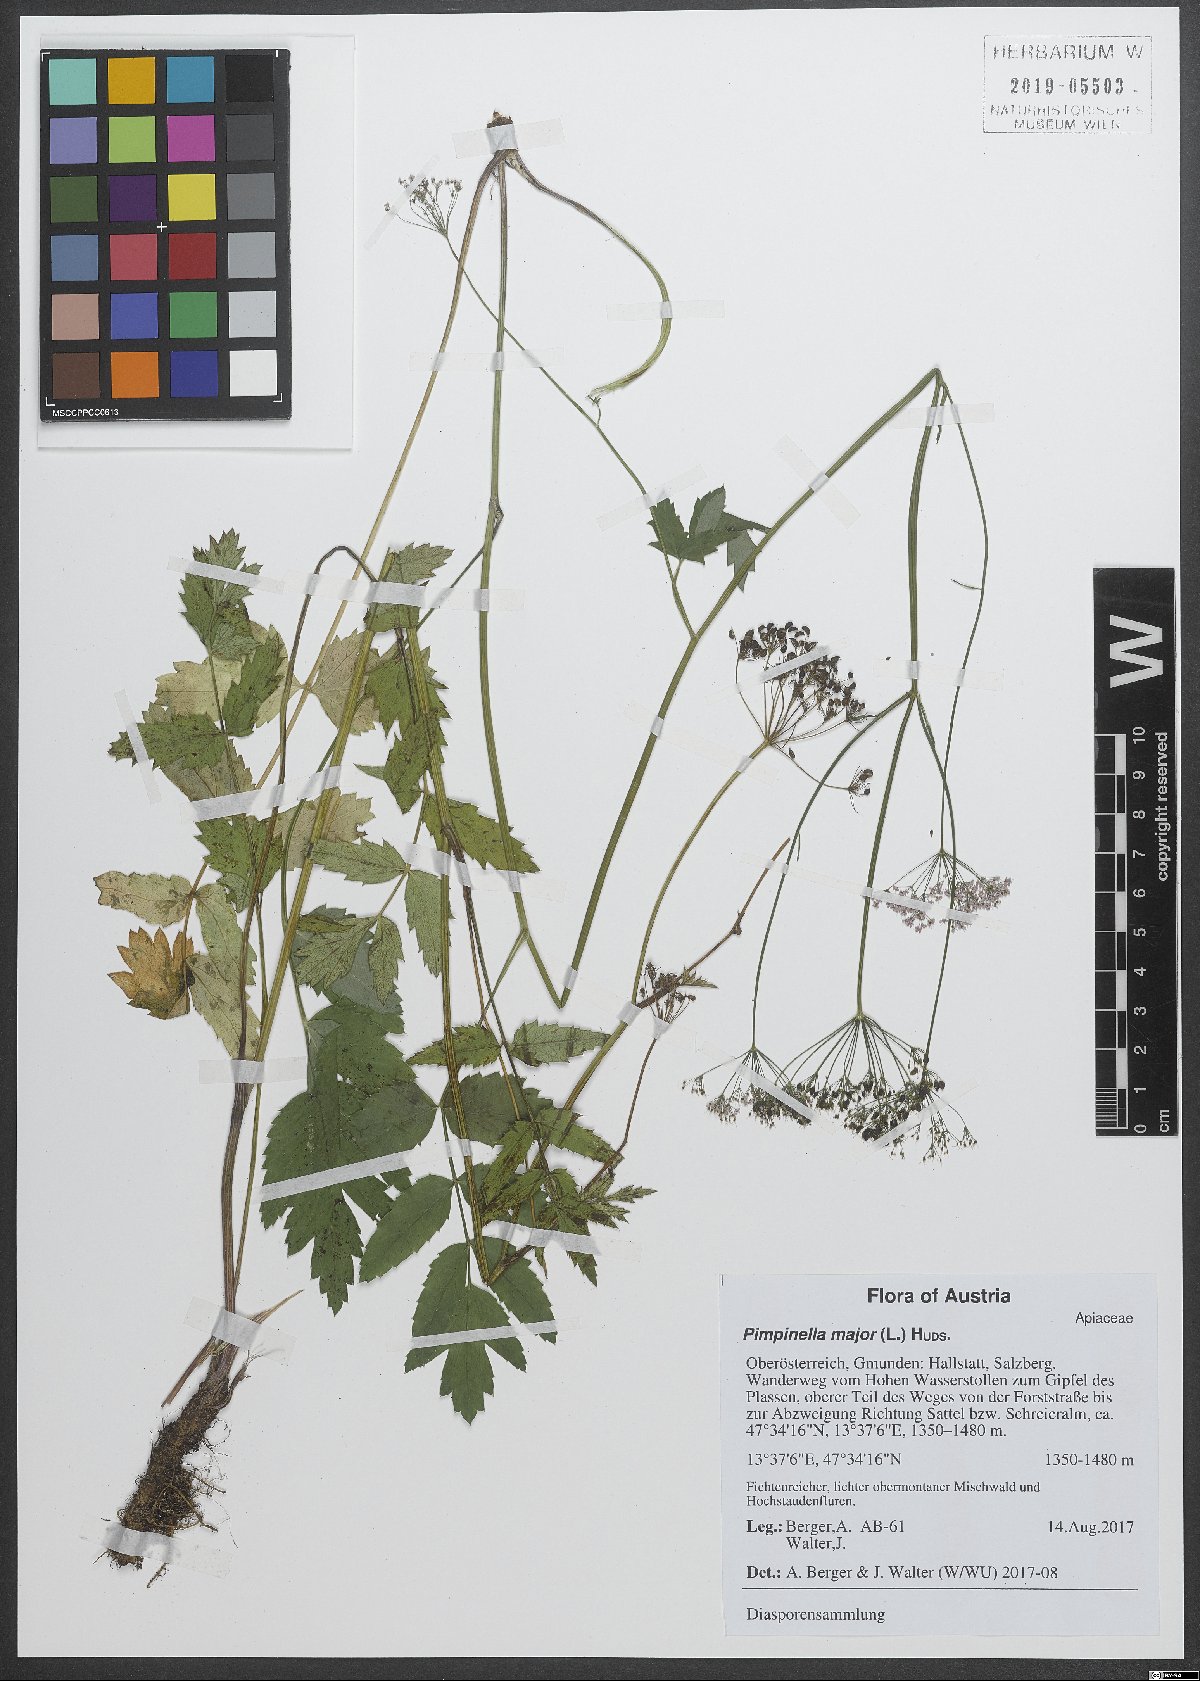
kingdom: Plantae
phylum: Tracheophyta
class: Magnoliopsida
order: Apiales
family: Apiaceae
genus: Pimpinella
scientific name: Pimpinella major
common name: Greater burnet-saxifrage
